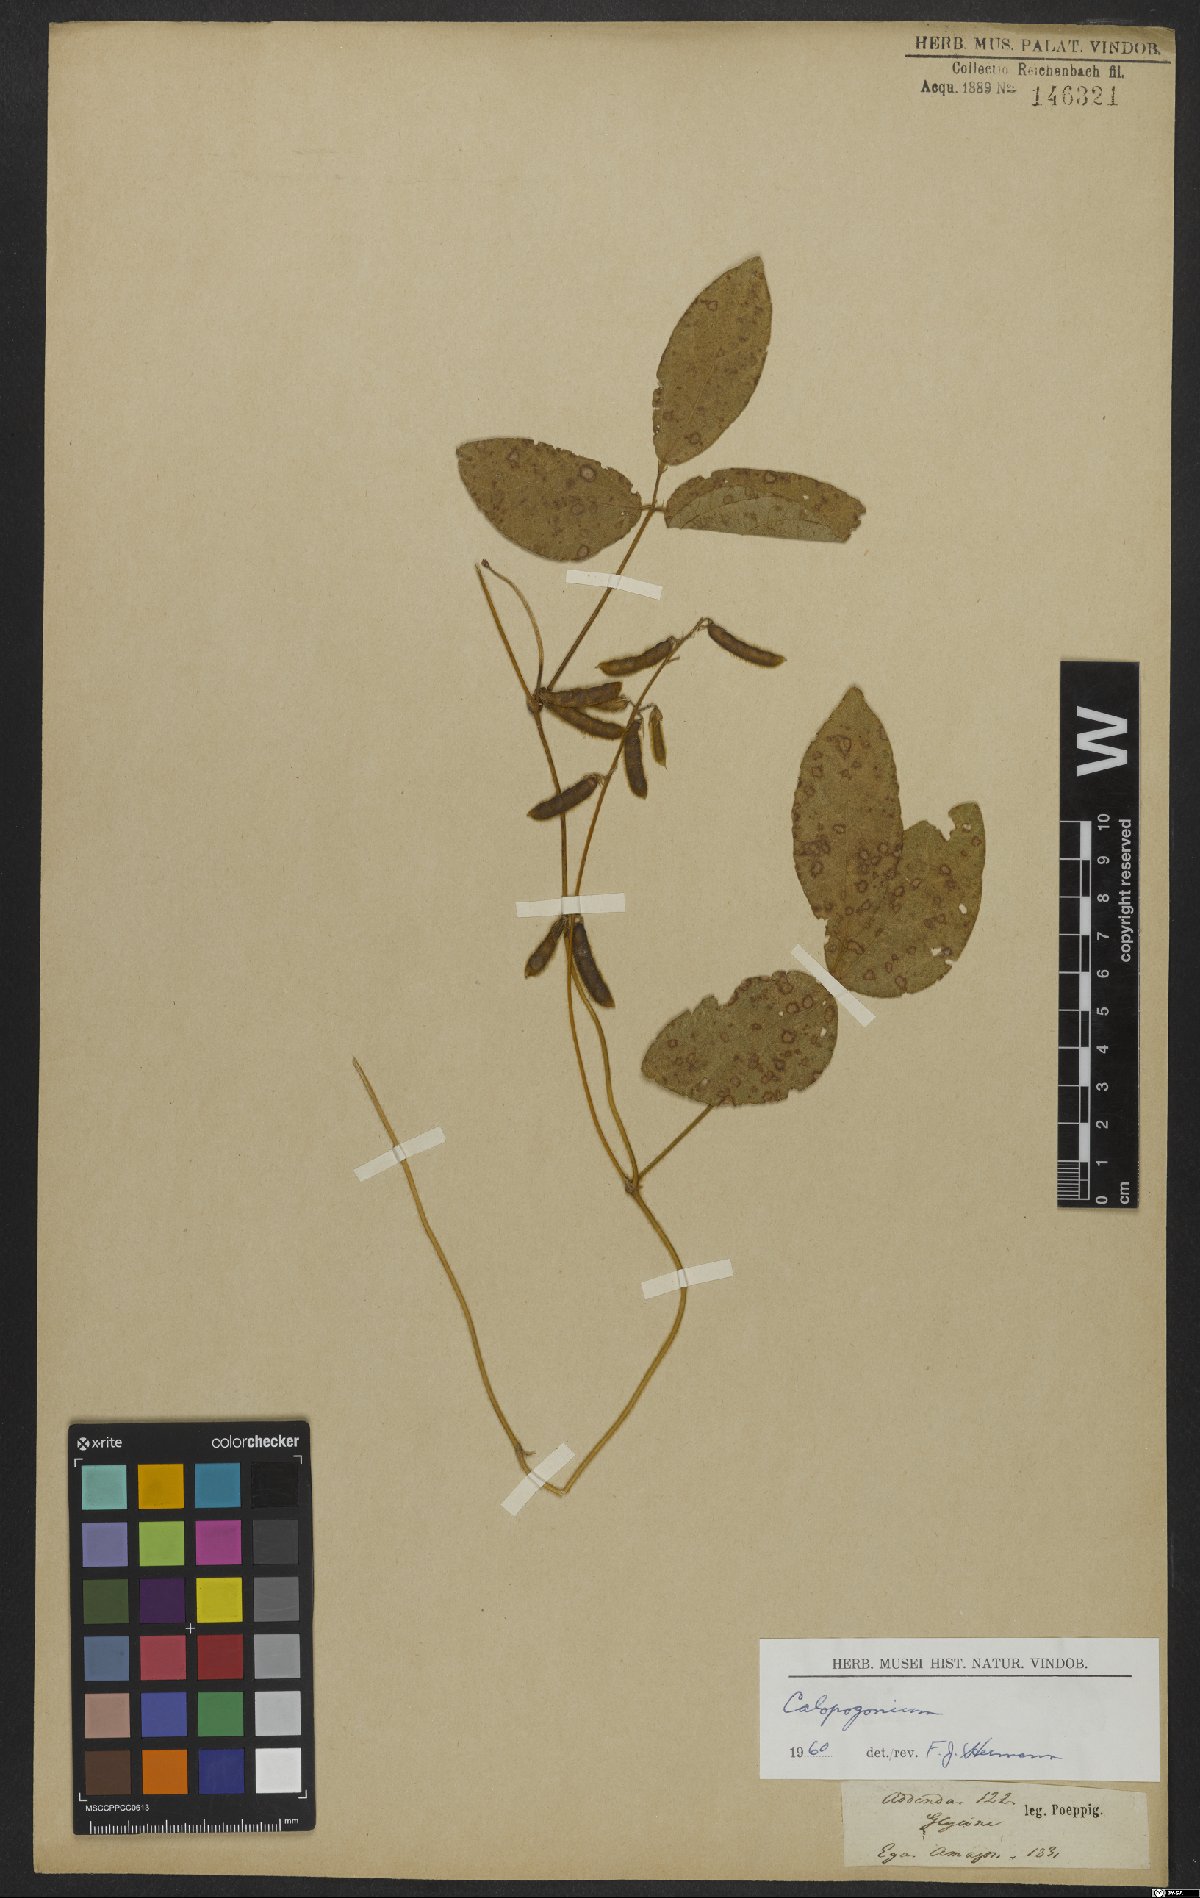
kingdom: Plantae
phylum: Tracheophyta
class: Magnoliopsida
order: Fabales
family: Fabaceae
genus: Calopogonium
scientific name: Calopogonium mucunoides
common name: Calopo
